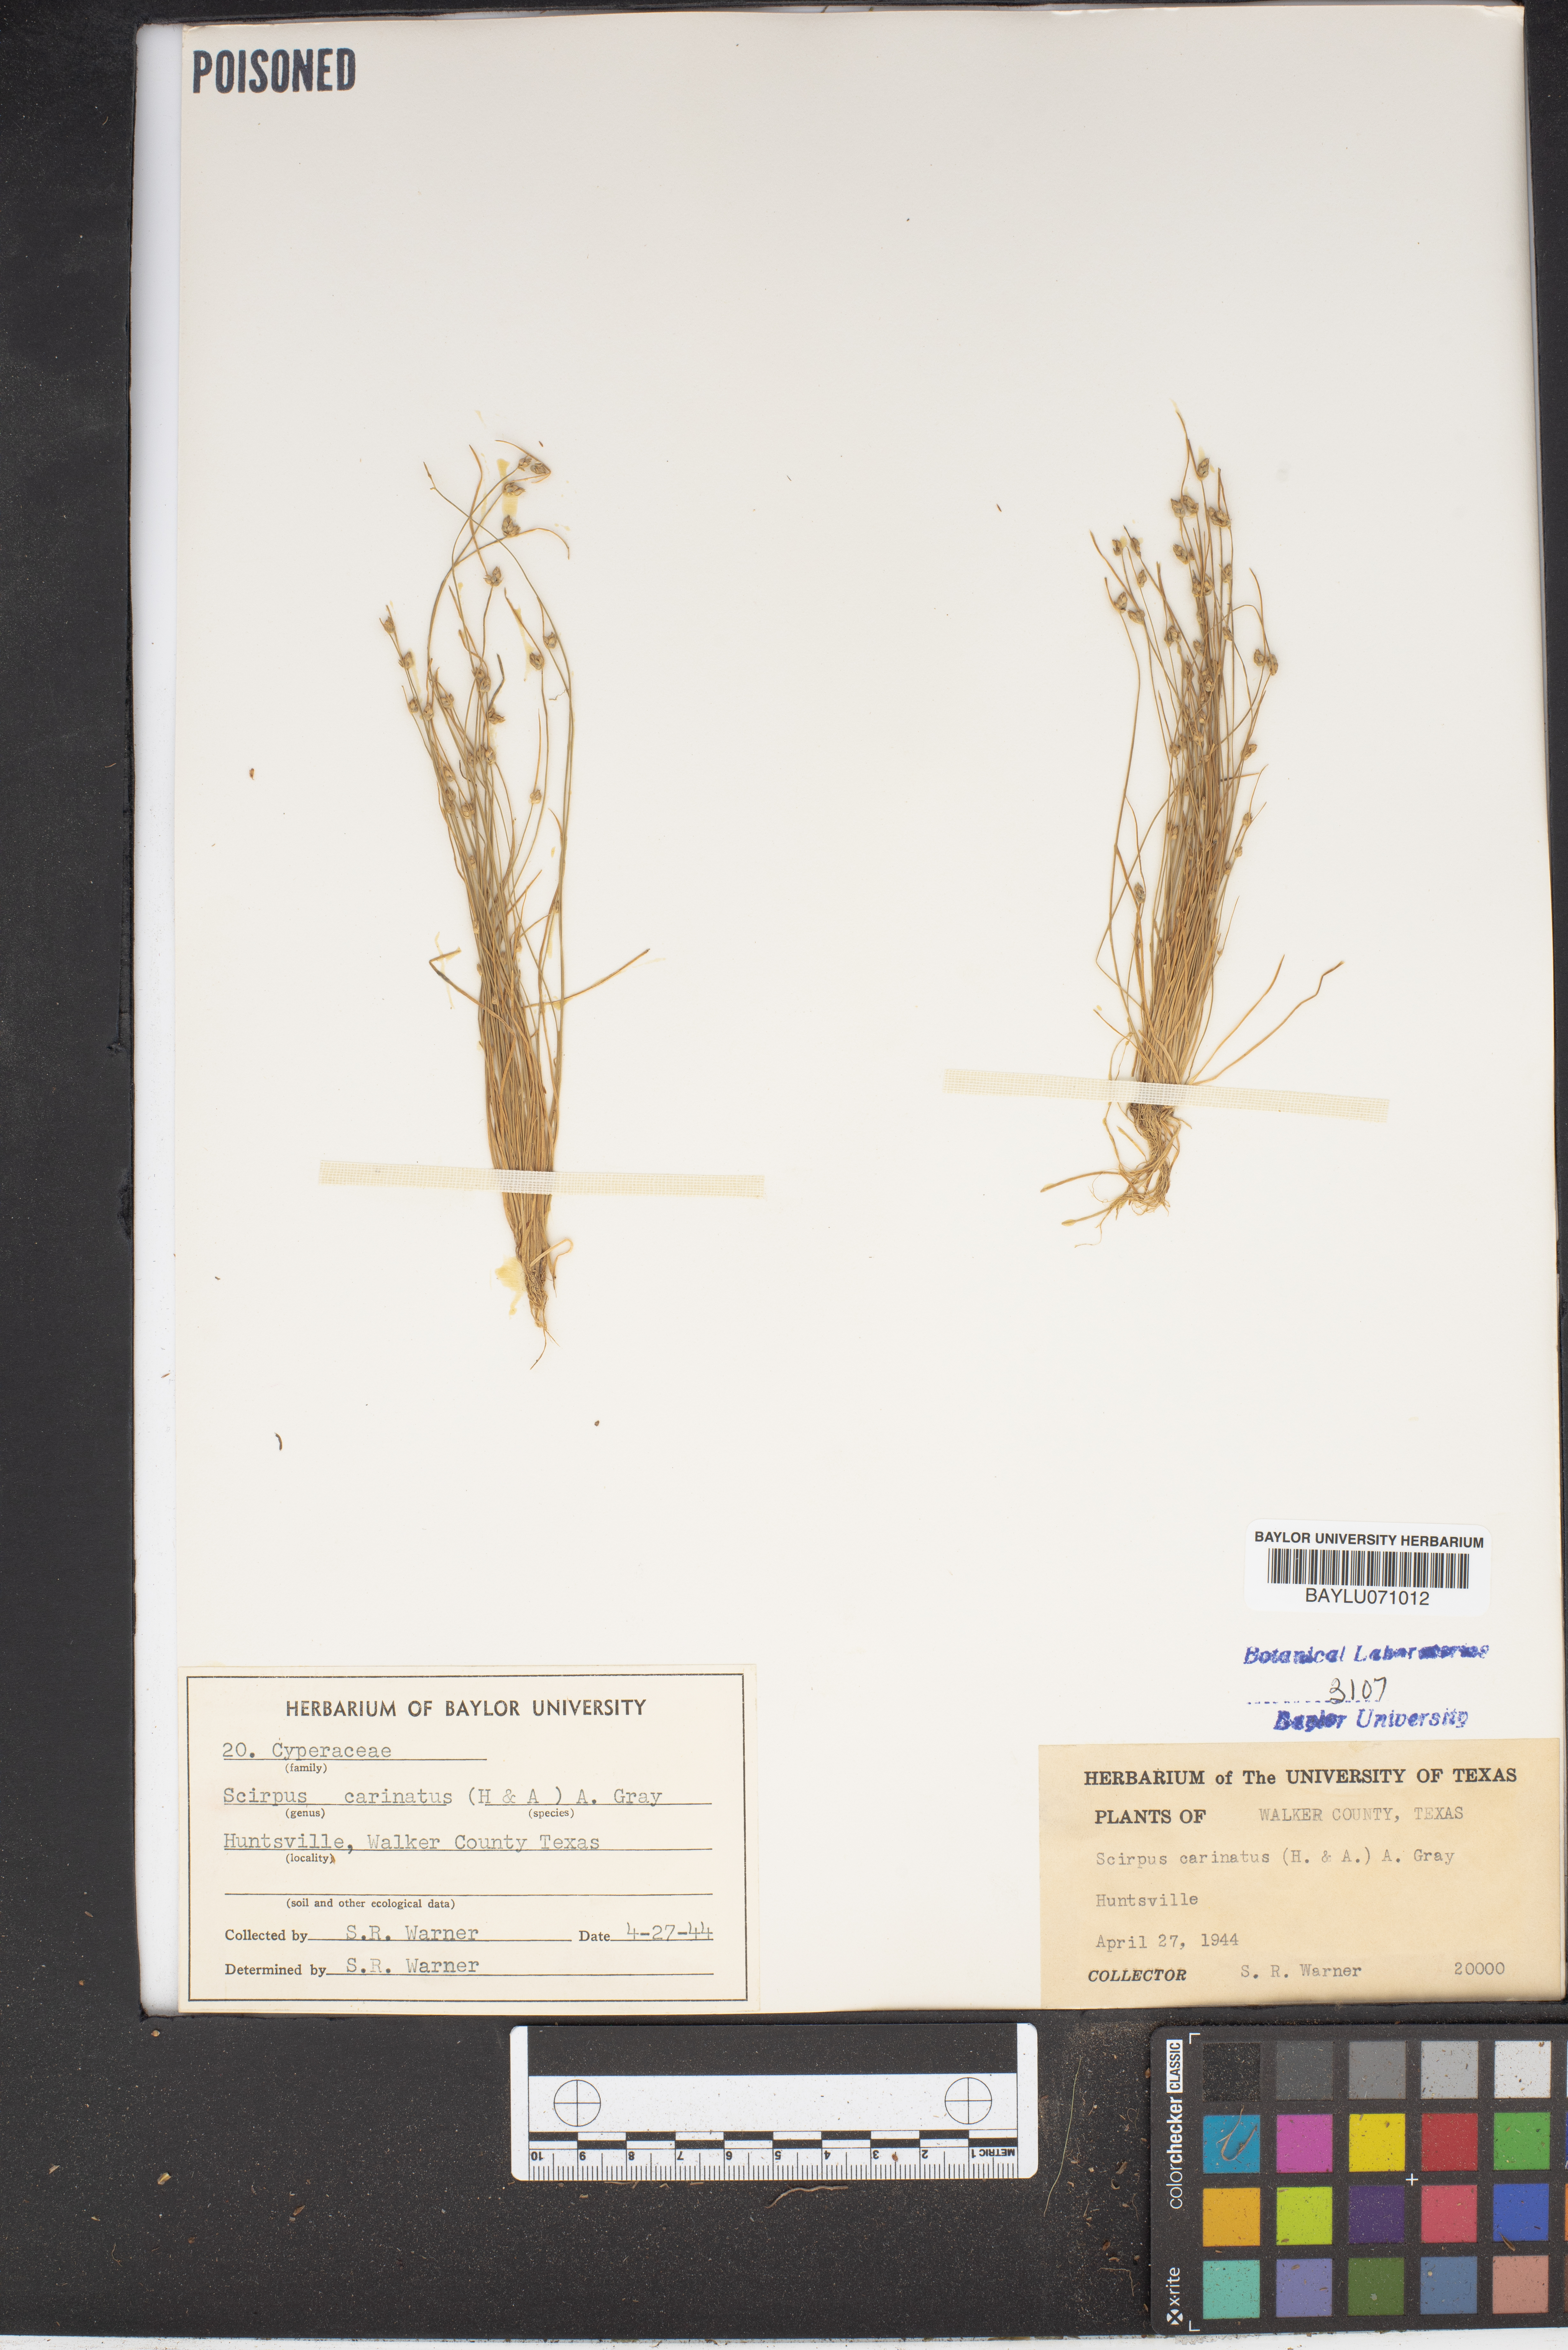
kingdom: Plantae
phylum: Tracheophyta
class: Liliopsida
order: Poales
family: Cyperaceae
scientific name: Cyperaceae
